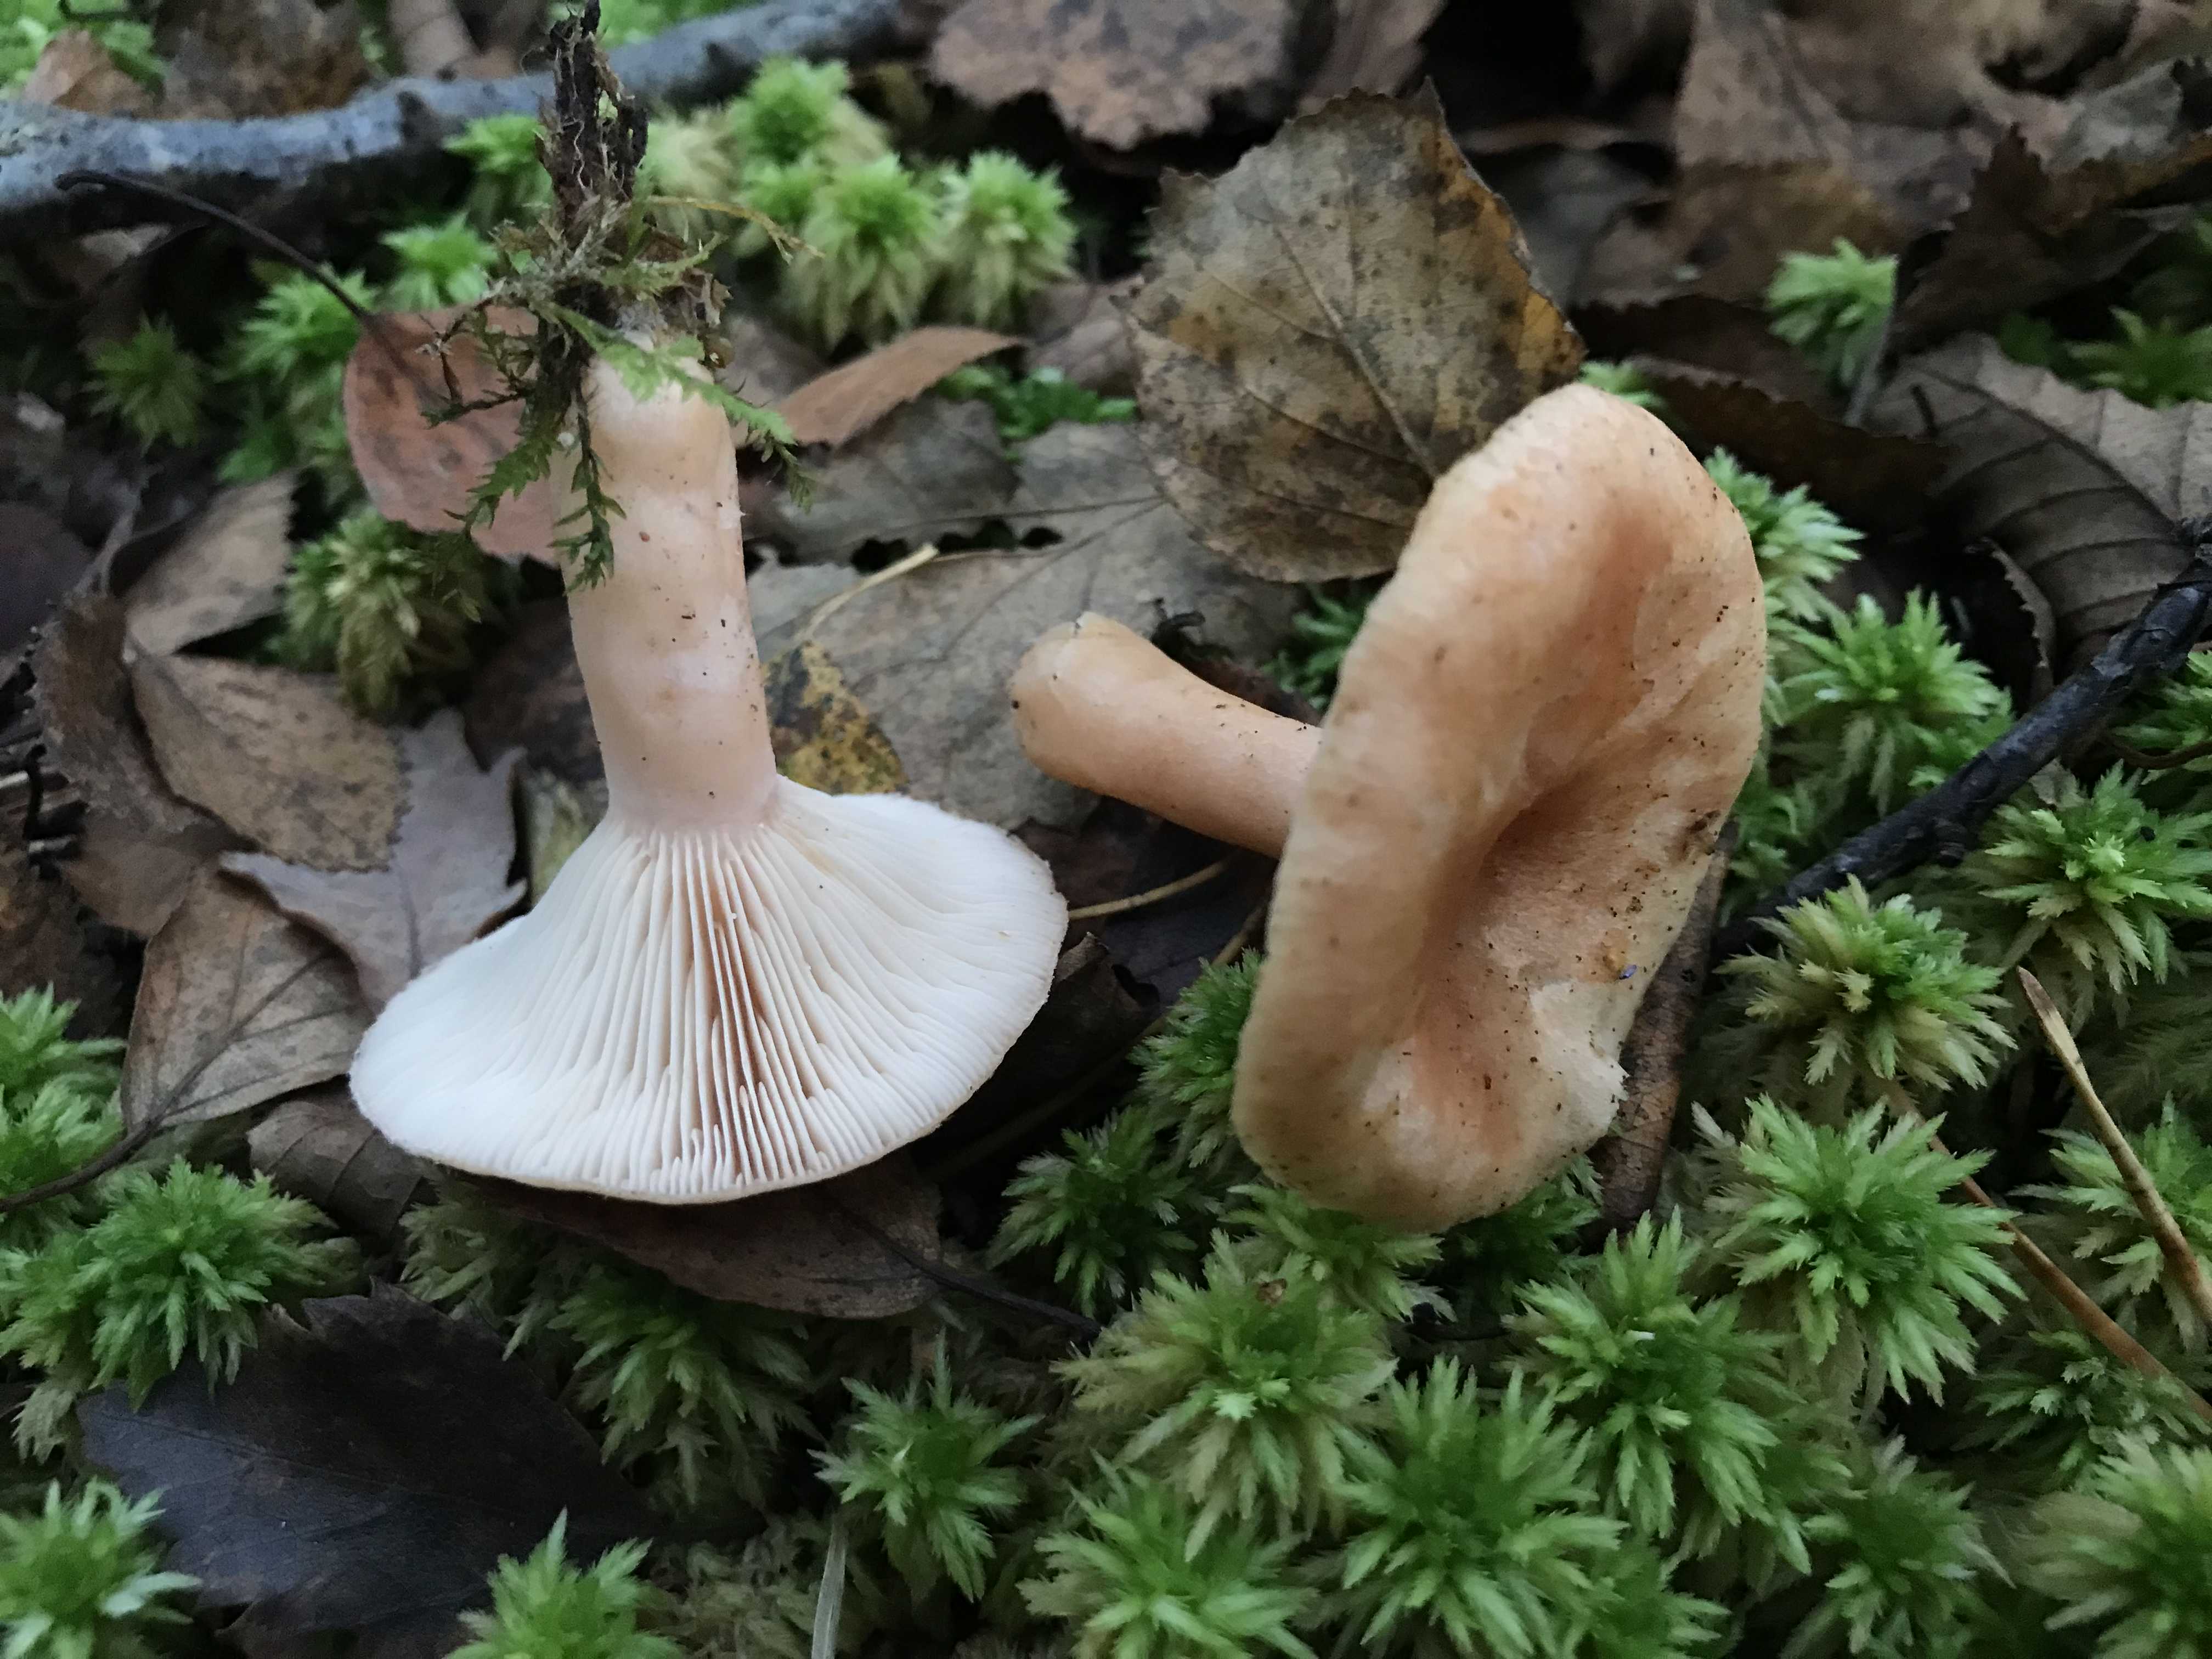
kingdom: Fungi
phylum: Basidiomycota
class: Agaricomycetes
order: Russulales
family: Russulaceae
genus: Lactarius
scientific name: Lactarius
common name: mælkehat
